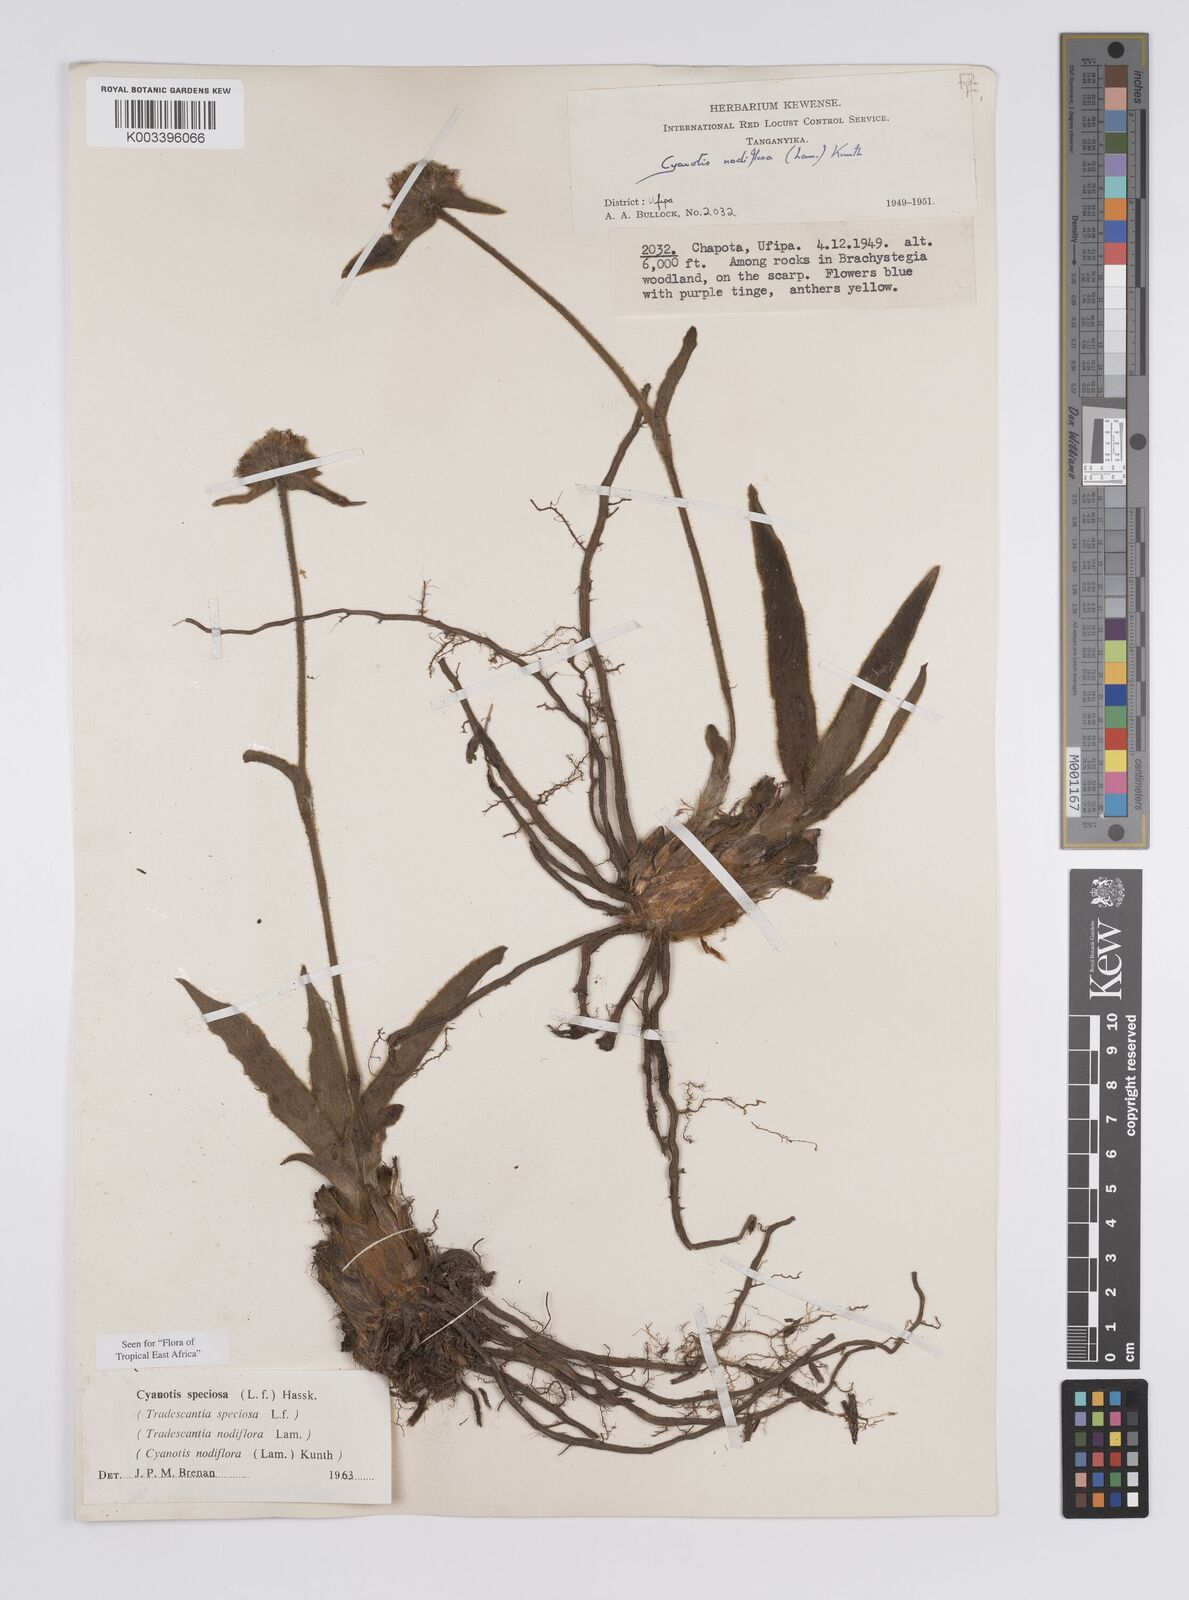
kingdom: Plantae
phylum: Tracheophyta
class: Liliopsida
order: Commelinales
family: Commelinaceae
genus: Cyanotis
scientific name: Cyanotis speciosa
